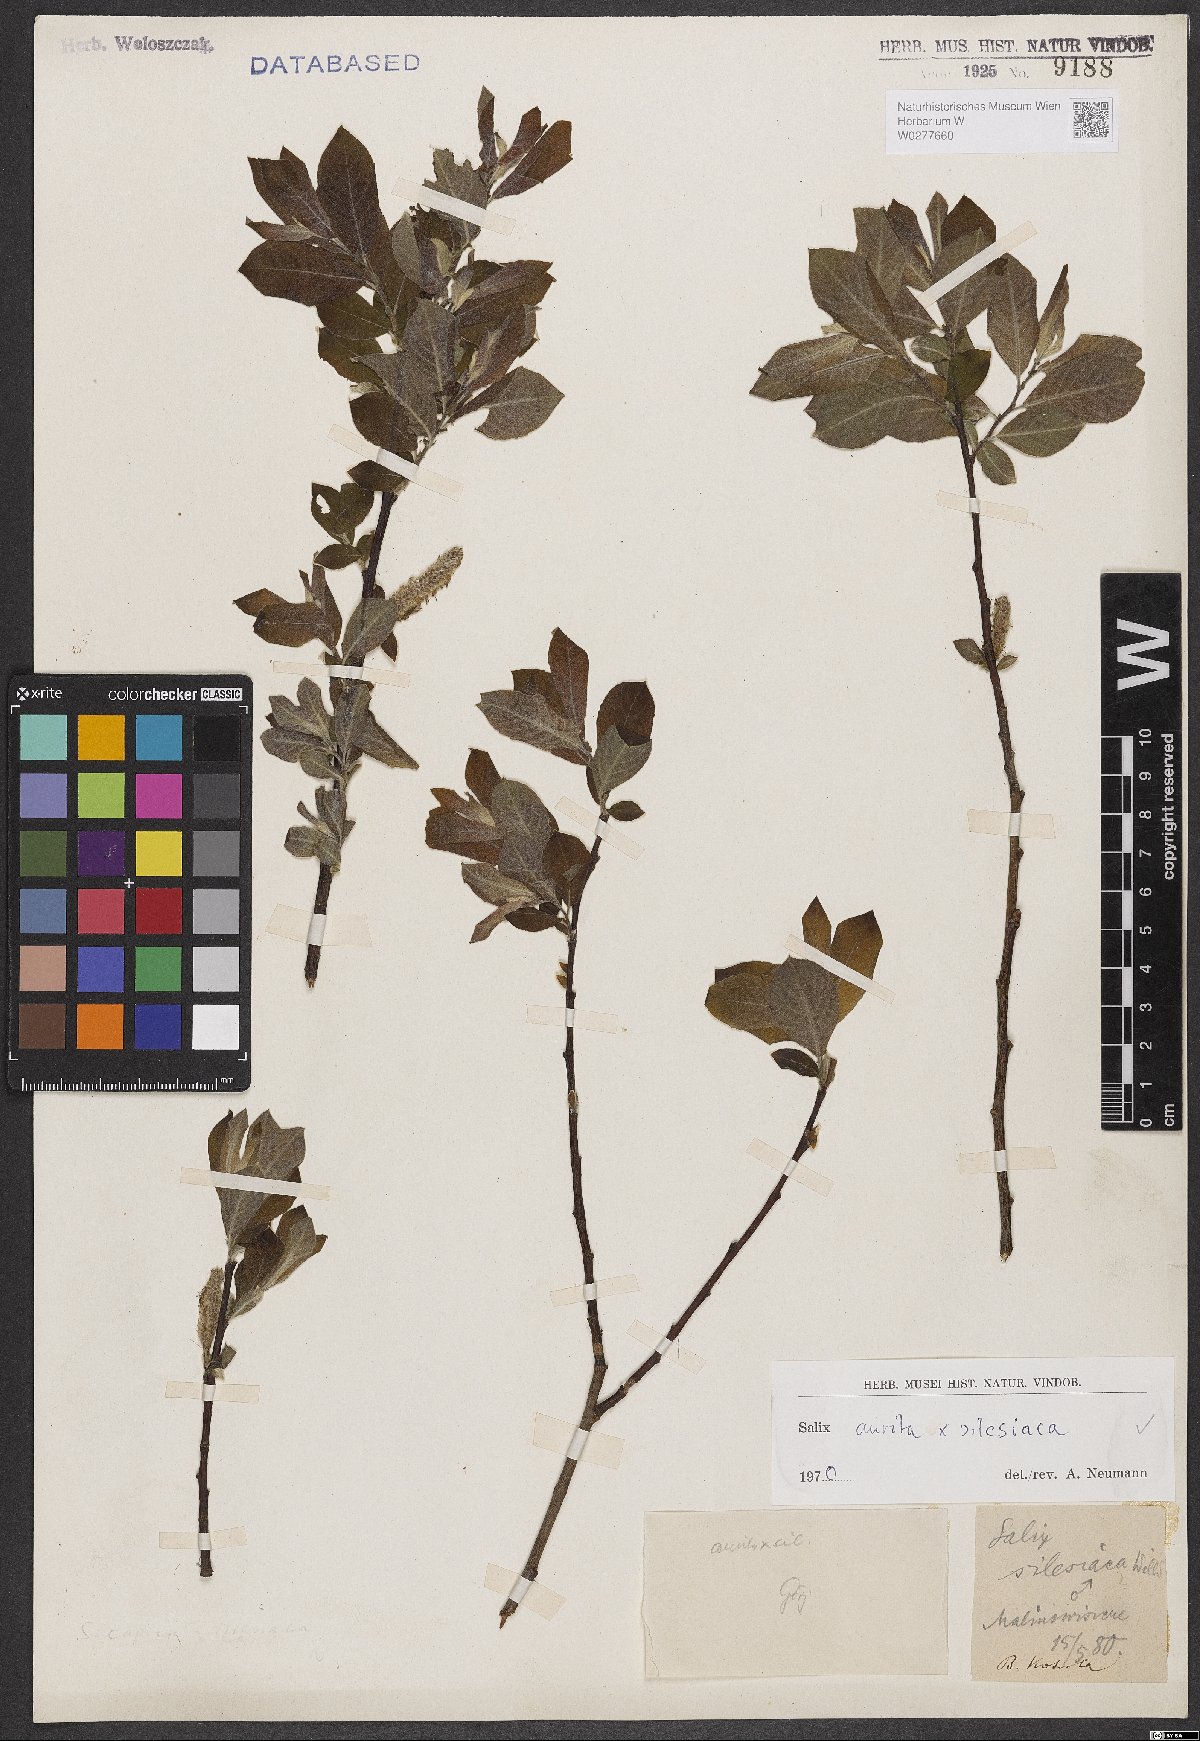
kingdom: Plantae
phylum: Tracheophyta
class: Magnoliopsida
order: Malpighiales
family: Salicaceae
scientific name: Salicaceae
